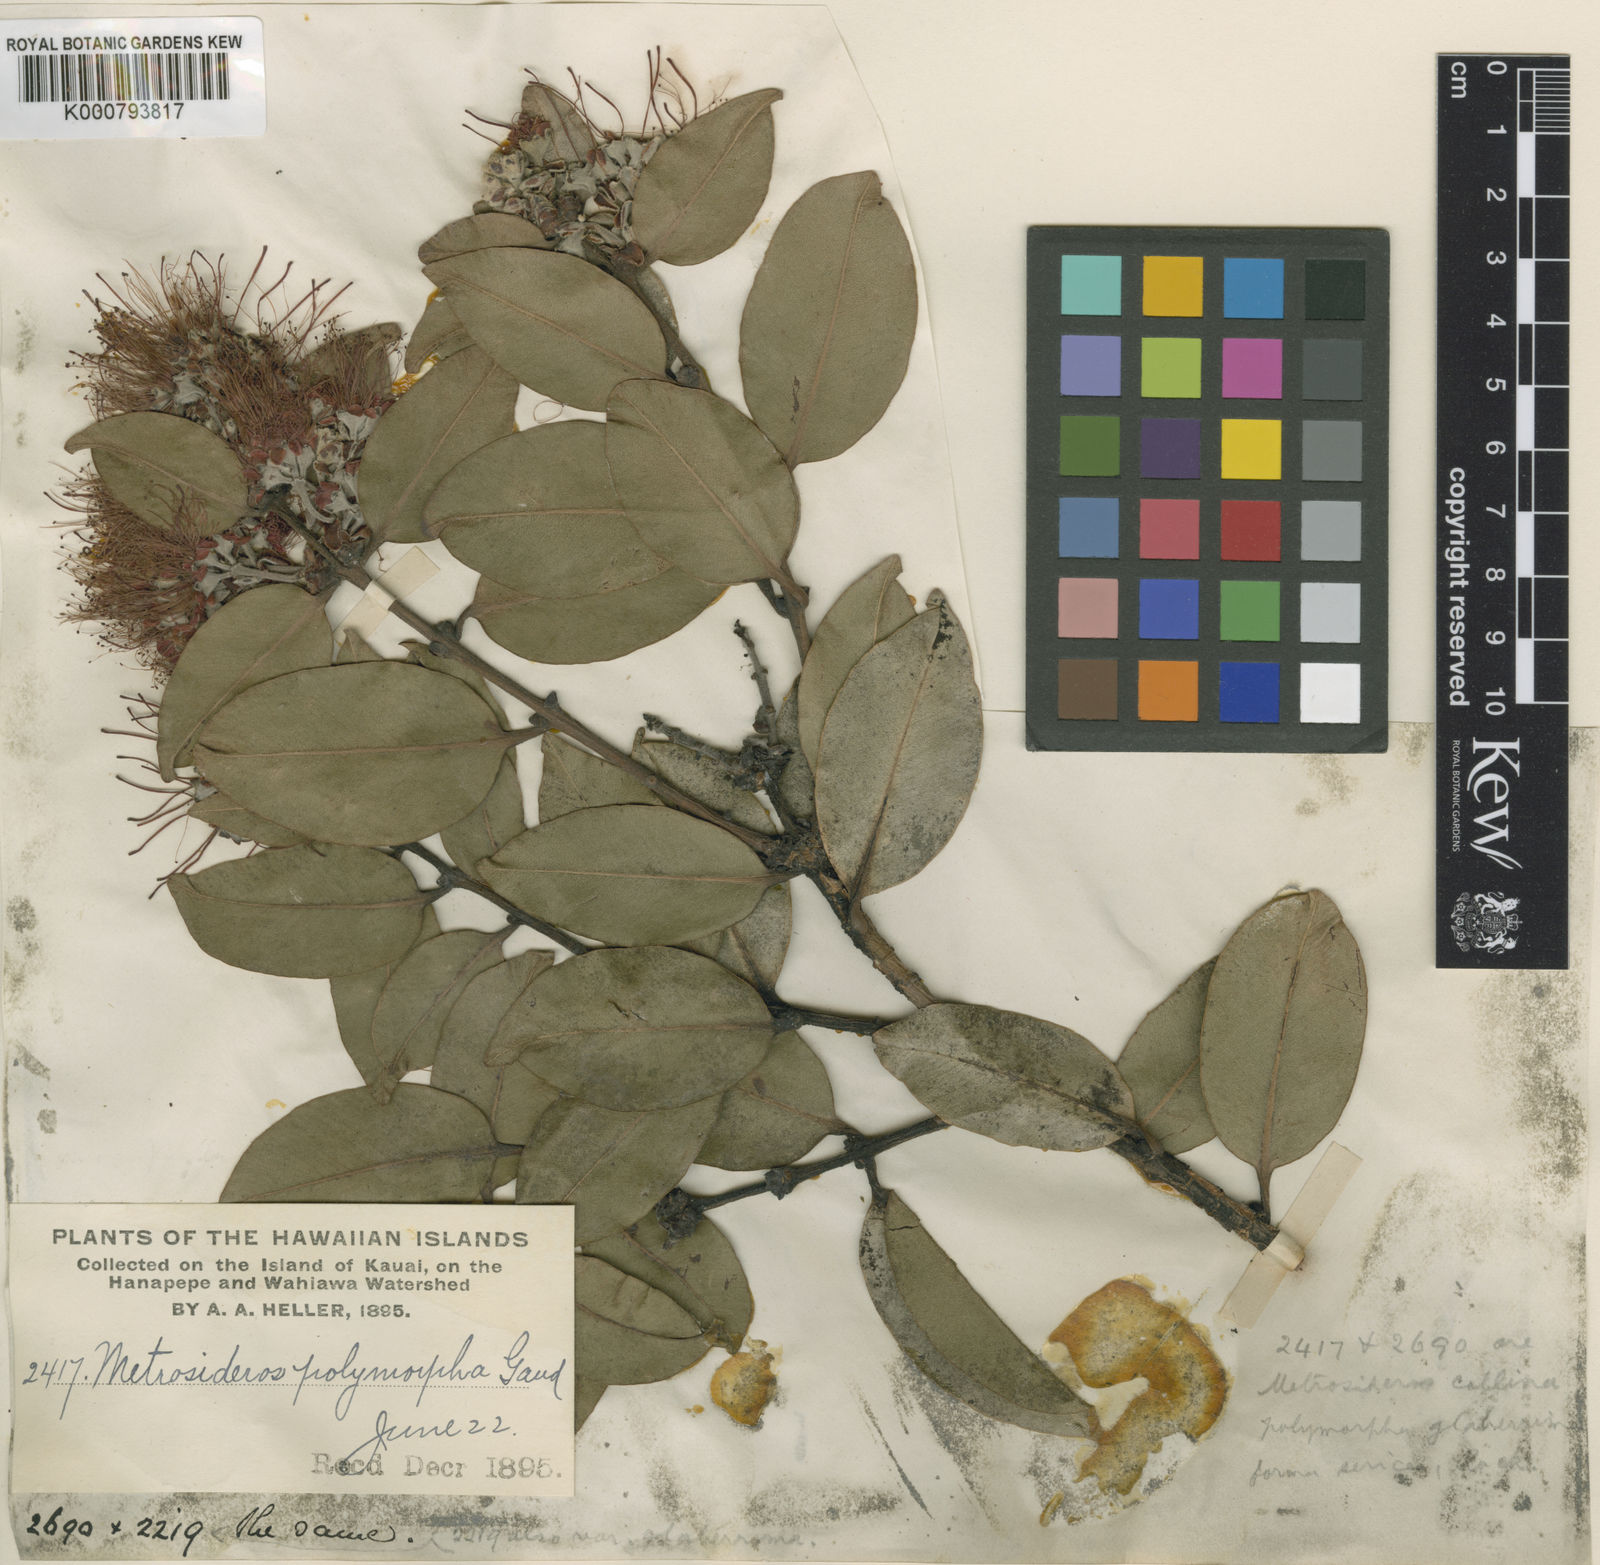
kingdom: Plantae
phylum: Tracheophyta
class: Magnoliopsida
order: Myrtales
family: Myrtaceae
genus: Metrosideros
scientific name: Metrosideros polymorpha
